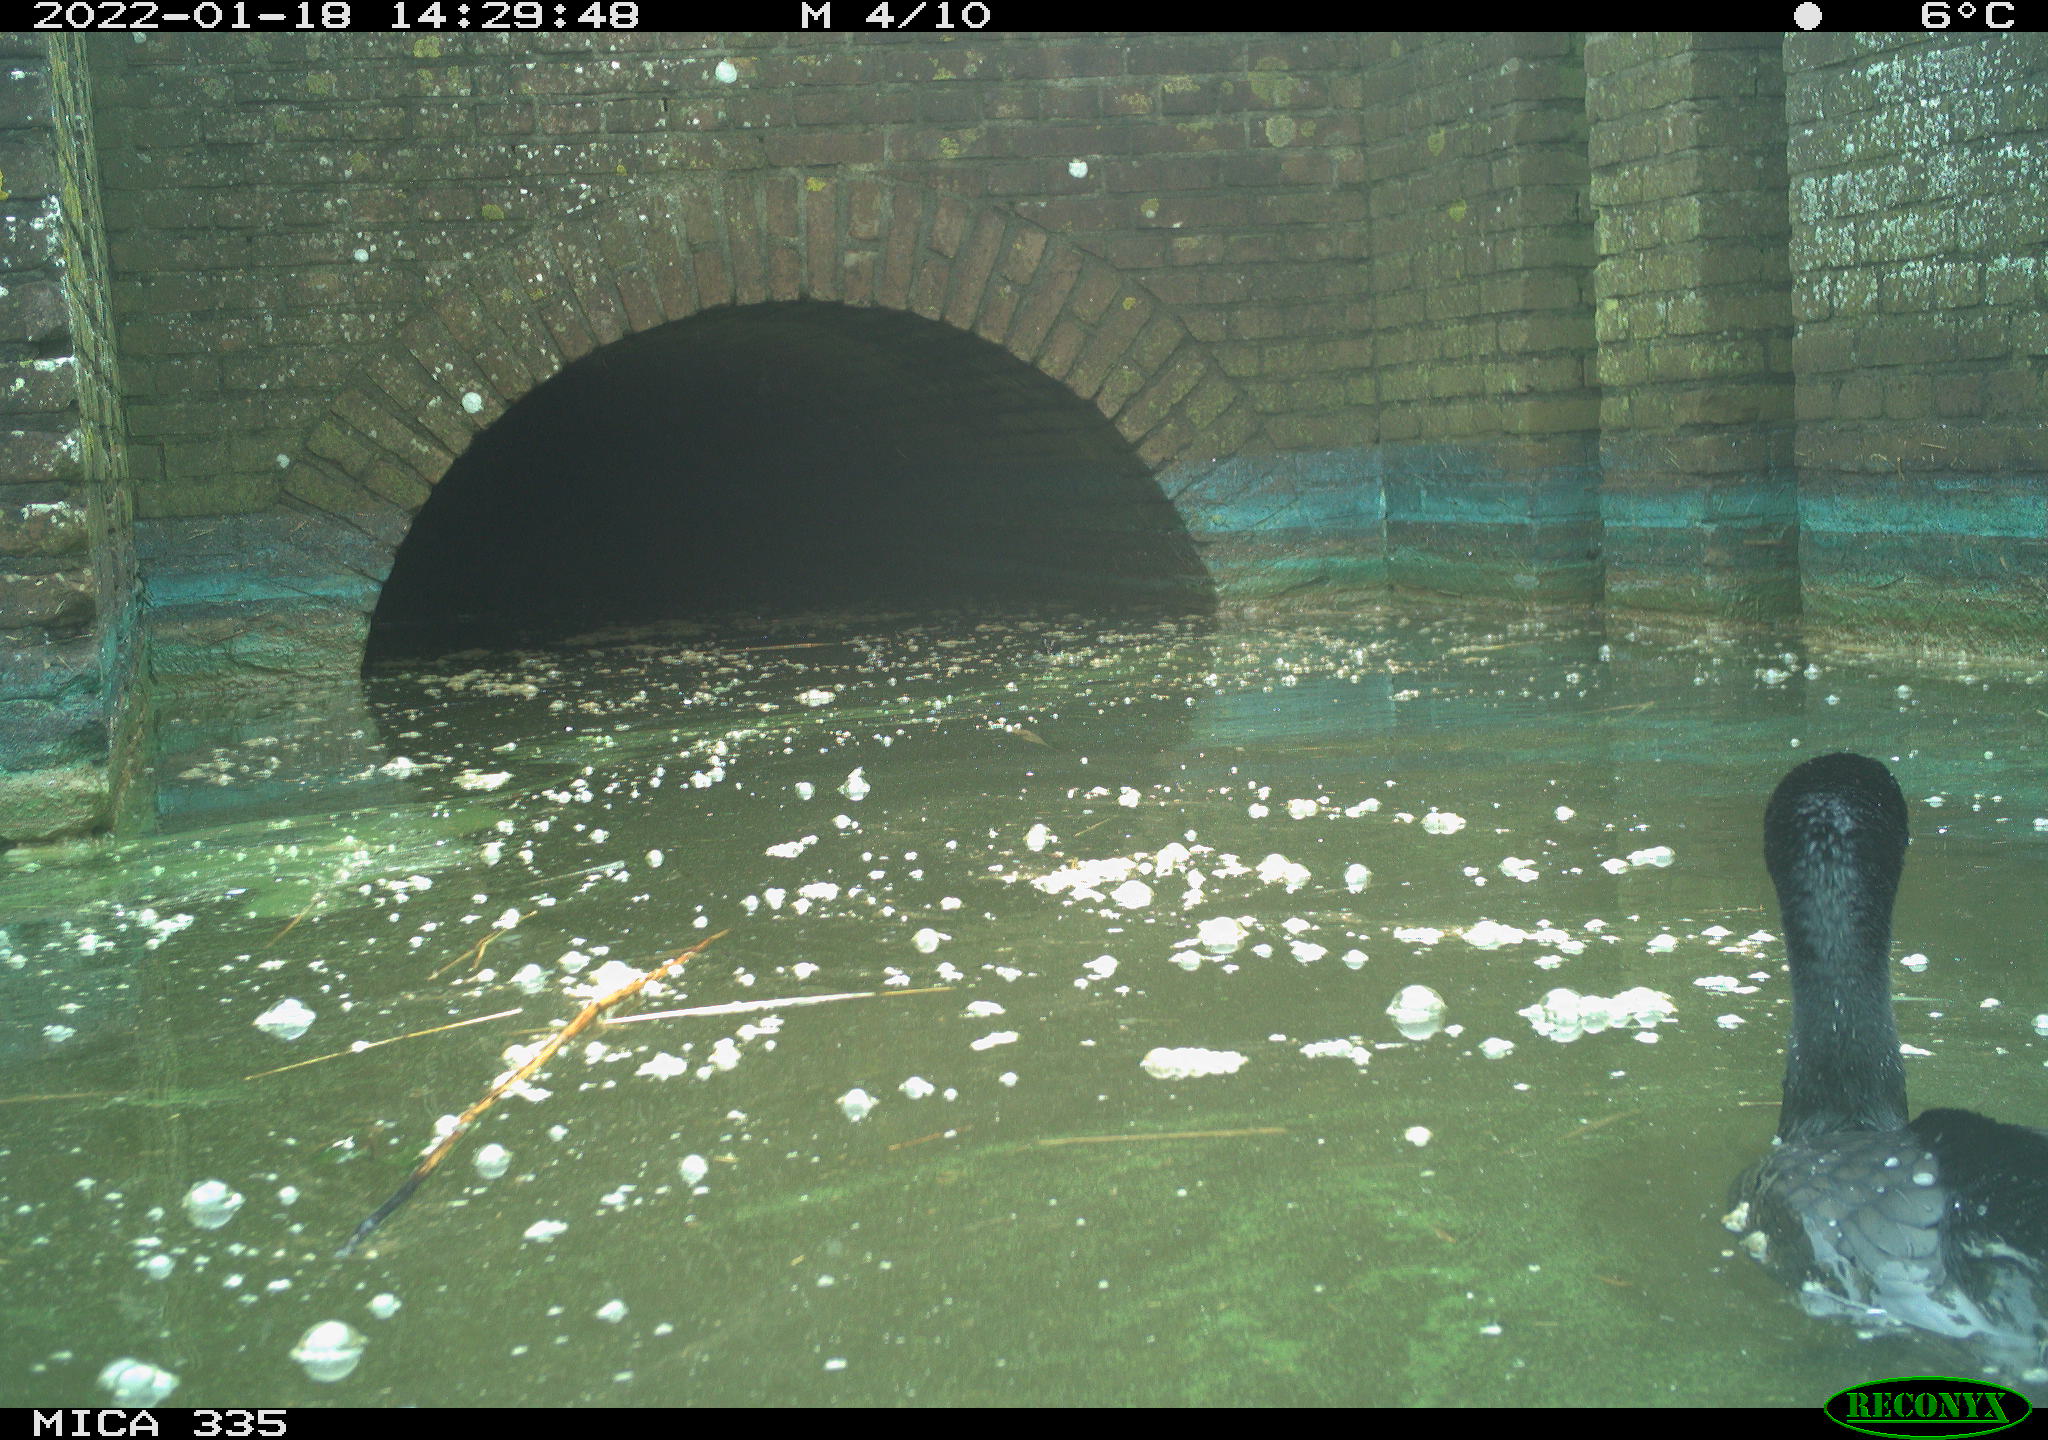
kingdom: Animalia
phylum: Chordata
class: Aves
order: Suliformes
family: Phalacrocoracidae
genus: Phalacrocorax
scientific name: Phalacrocorax carbo
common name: Great cormorant
